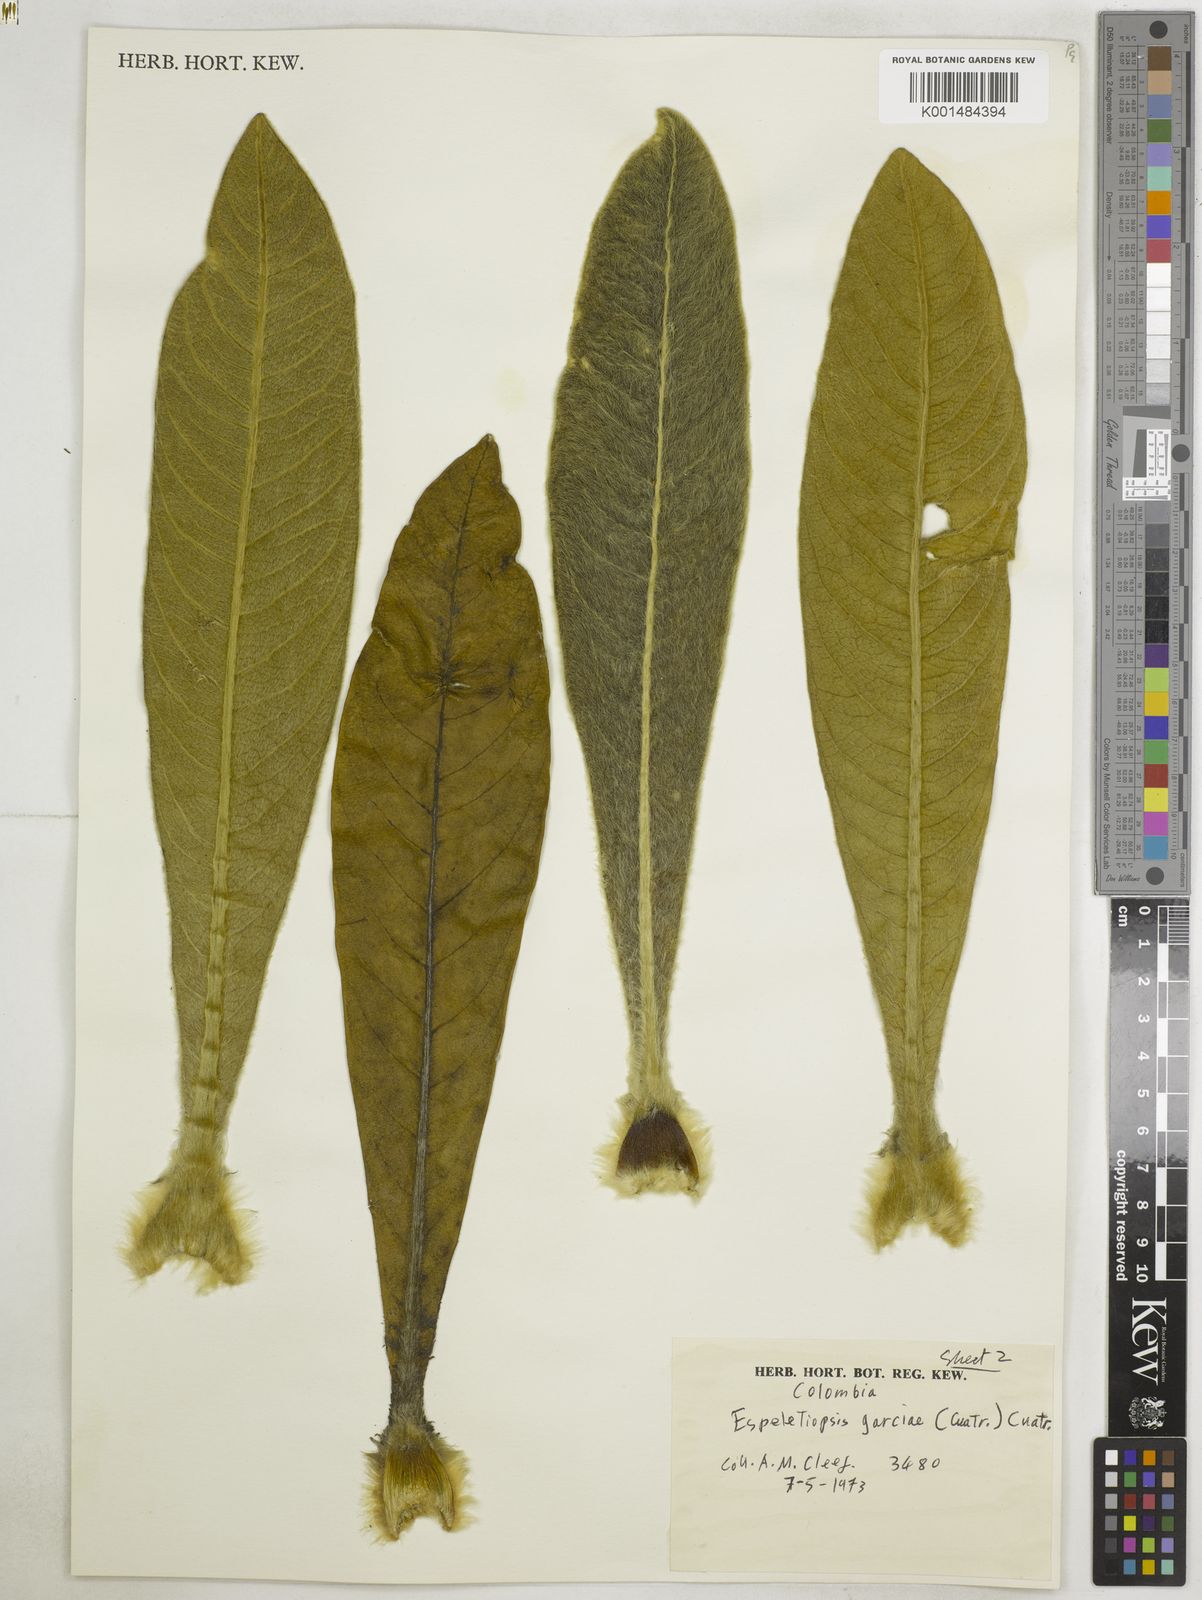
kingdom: Plantae
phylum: Tracheophyta
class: Magnoliopsida
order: Asterales
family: Asteraceae
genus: Espeletia
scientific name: Espeletia garciae
